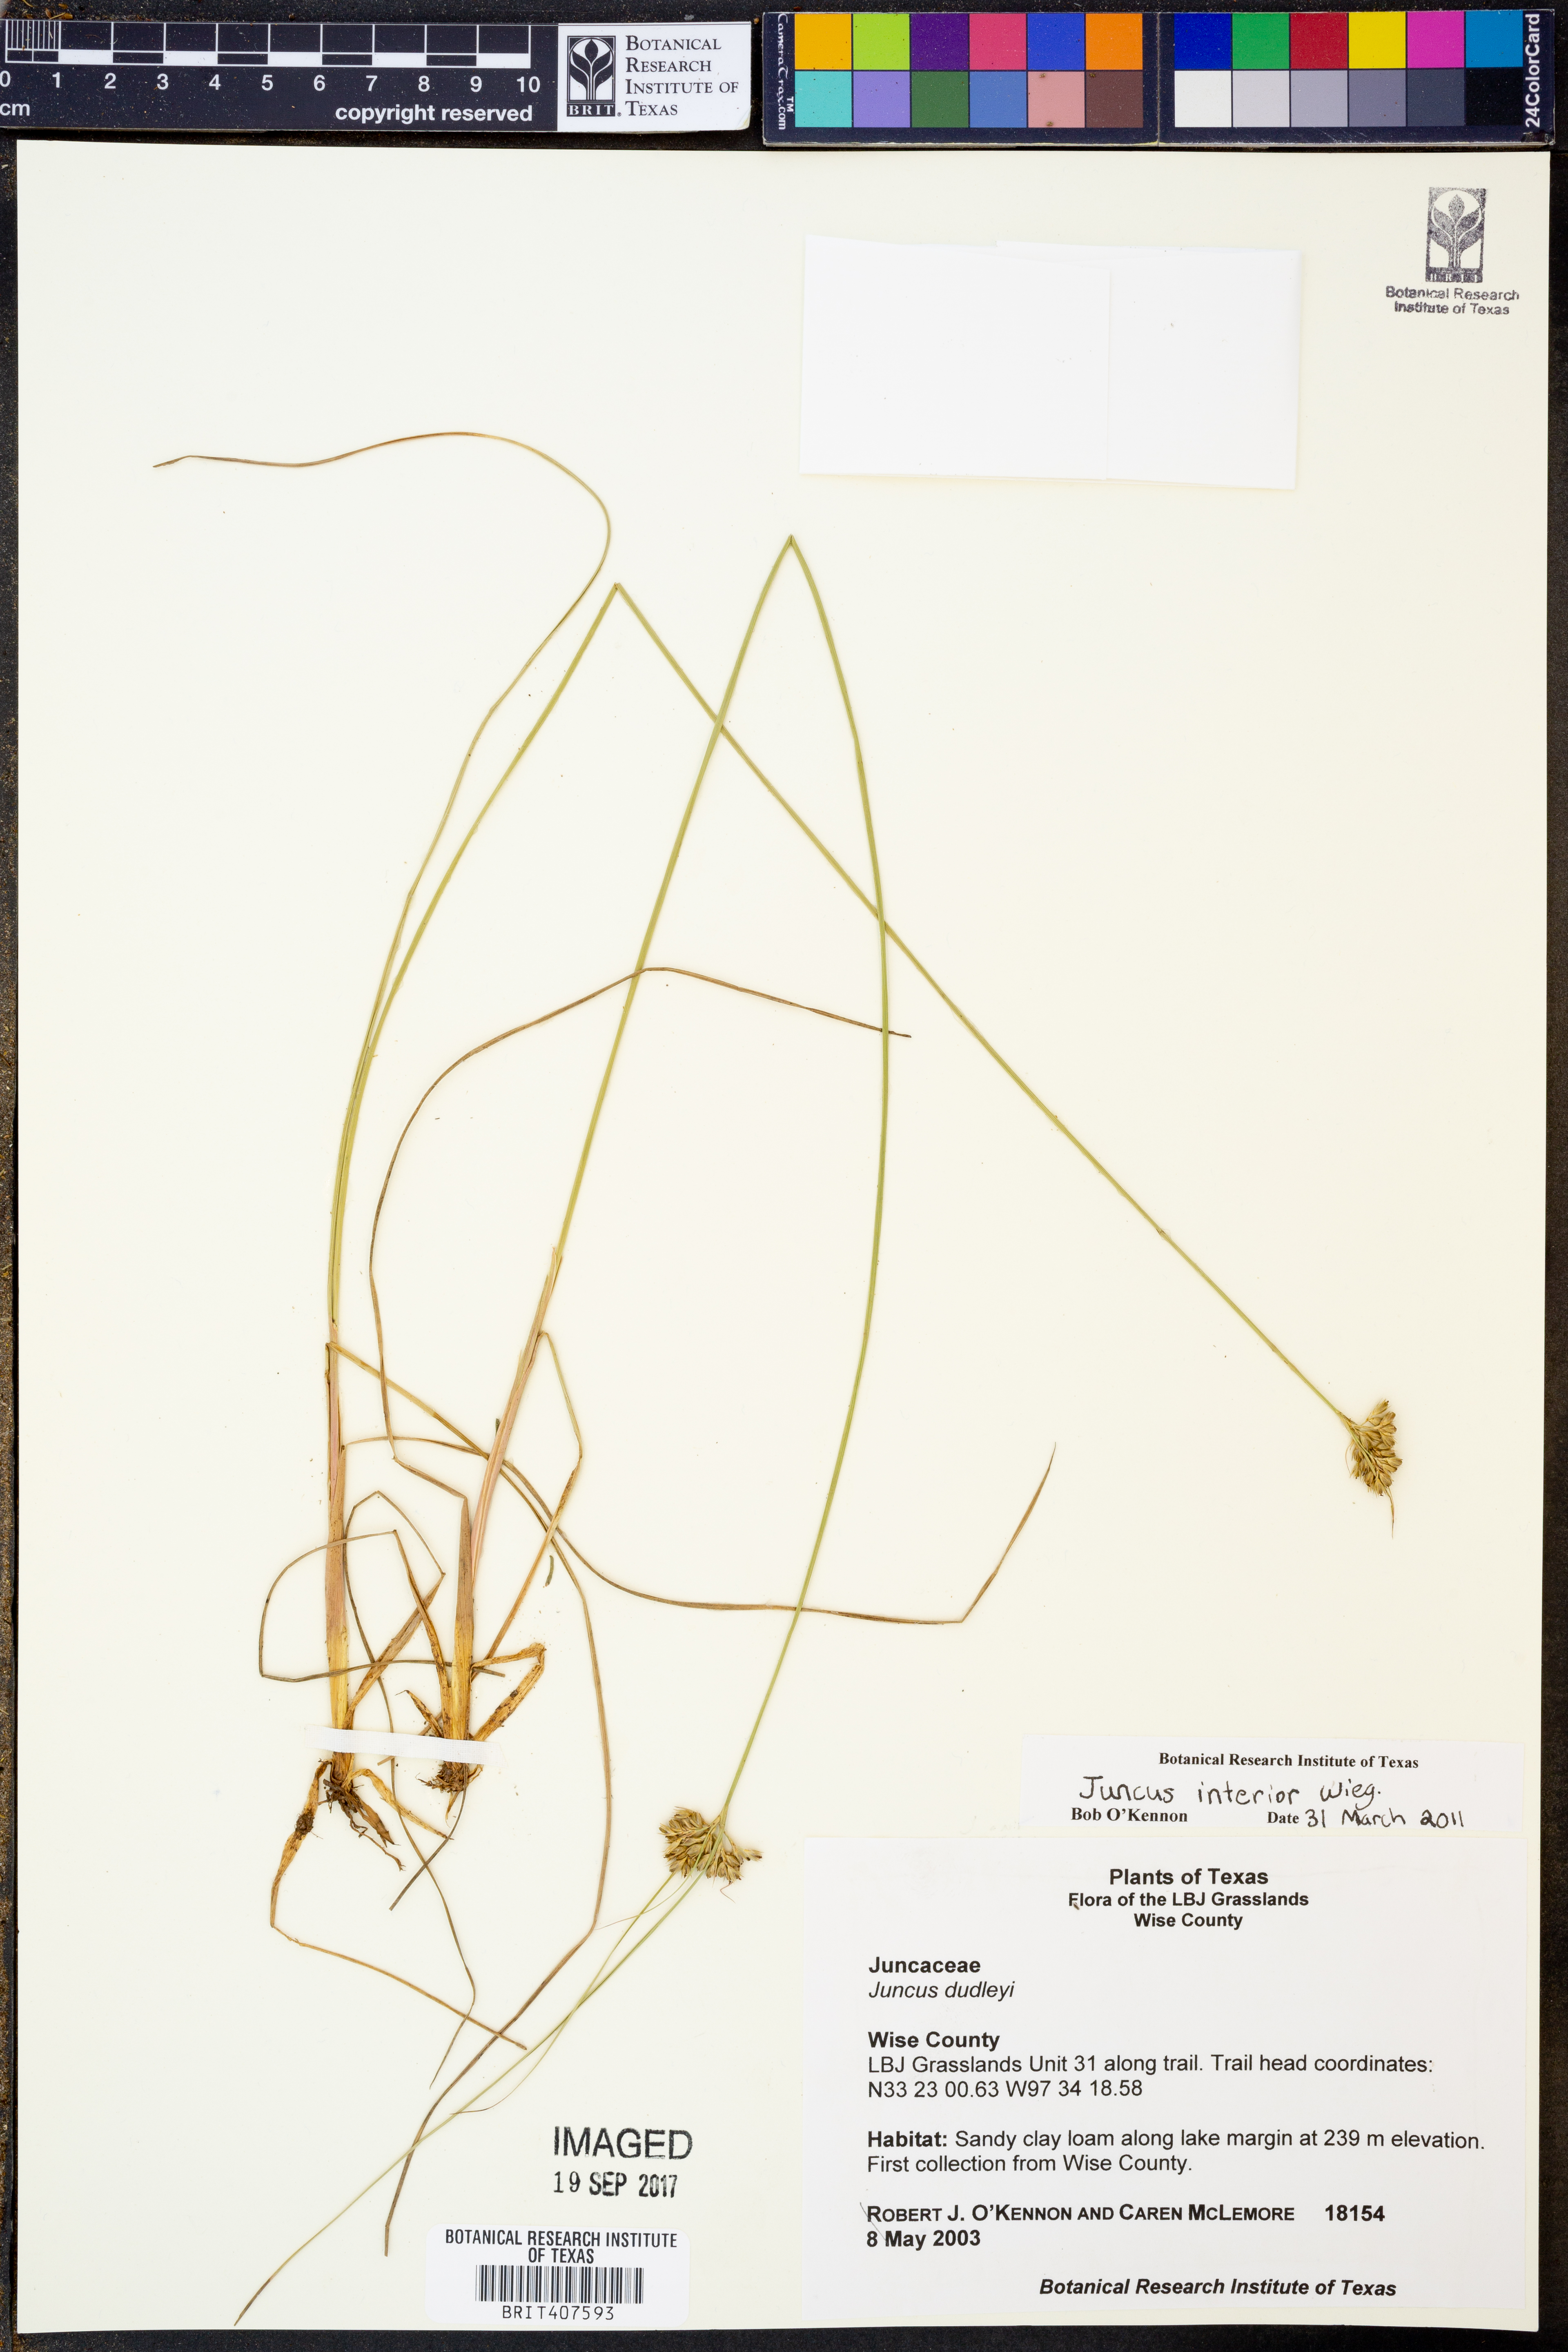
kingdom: Plantae
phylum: Tracheophyta
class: Liliopsida
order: Poales
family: Juncaceae
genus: Juncus
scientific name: Juncus interior
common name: Interior rush
